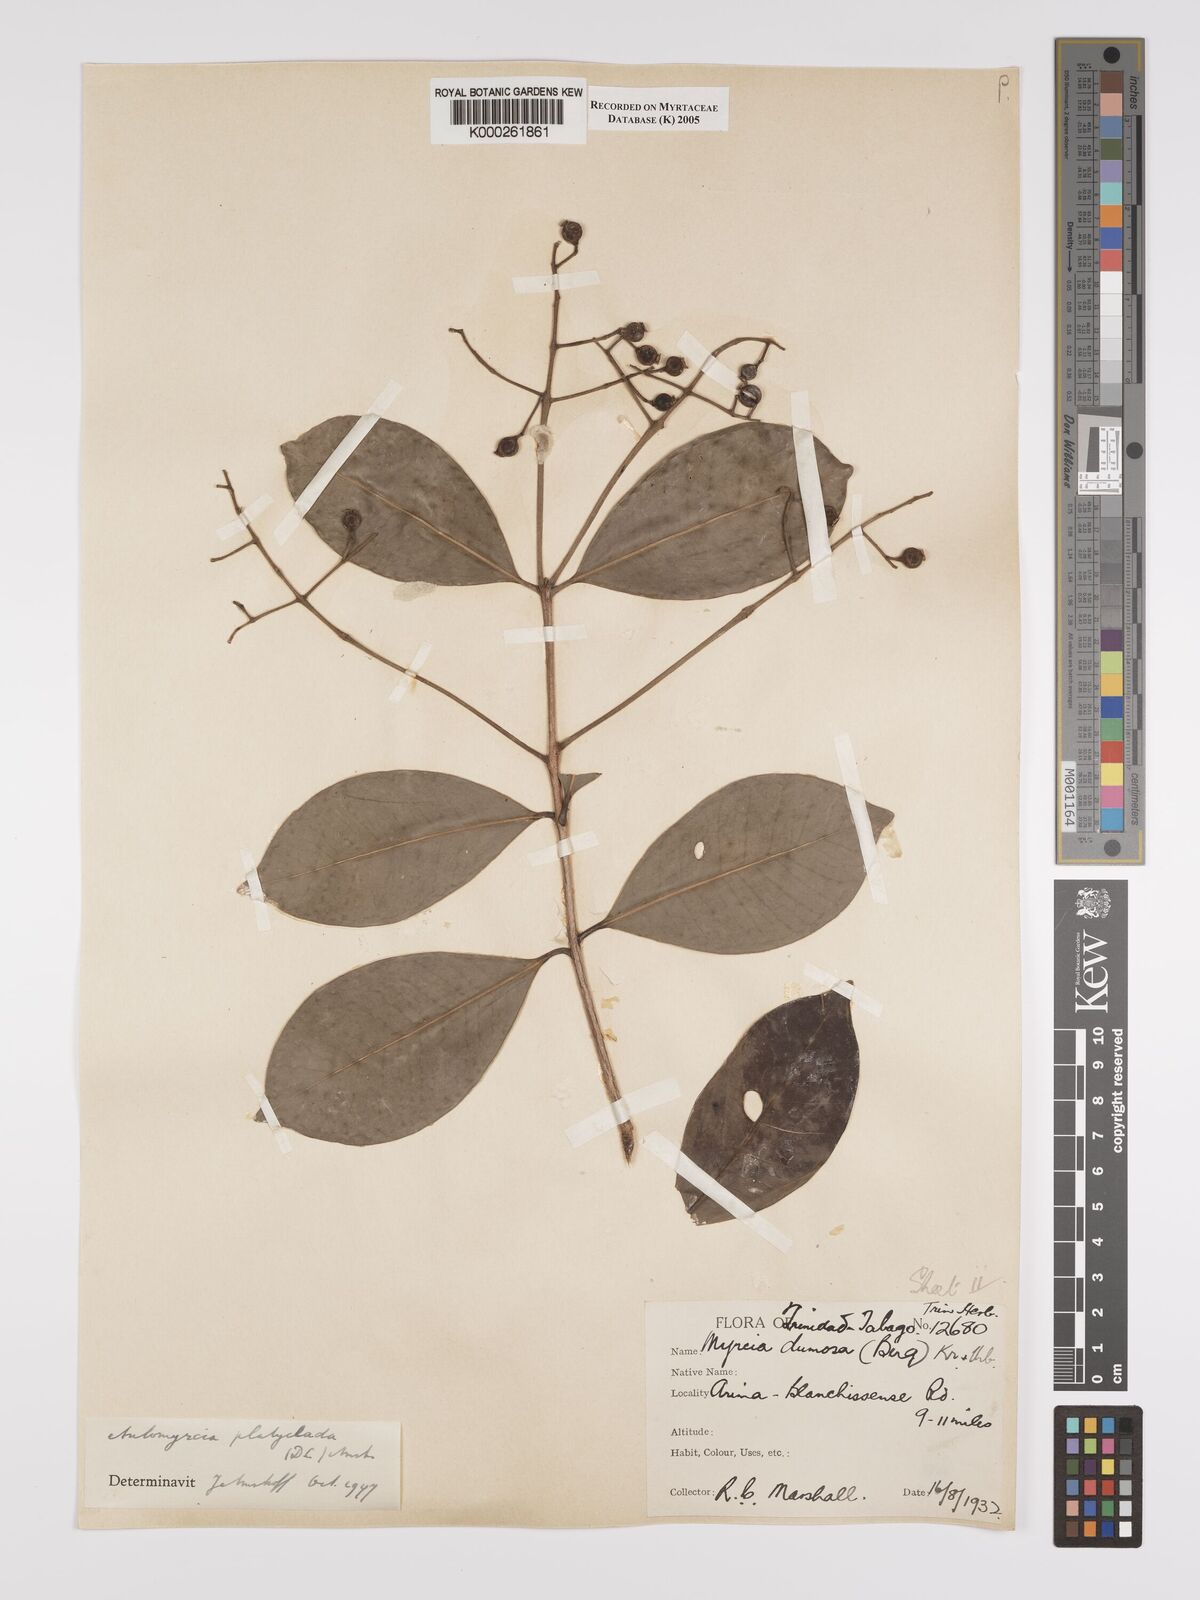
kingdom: Plantae
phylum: Tracheophyta
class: Magnoliopsida
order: Myrtales
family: Myrtaceae
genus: Myrcia
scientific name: Myrcia platyclada
